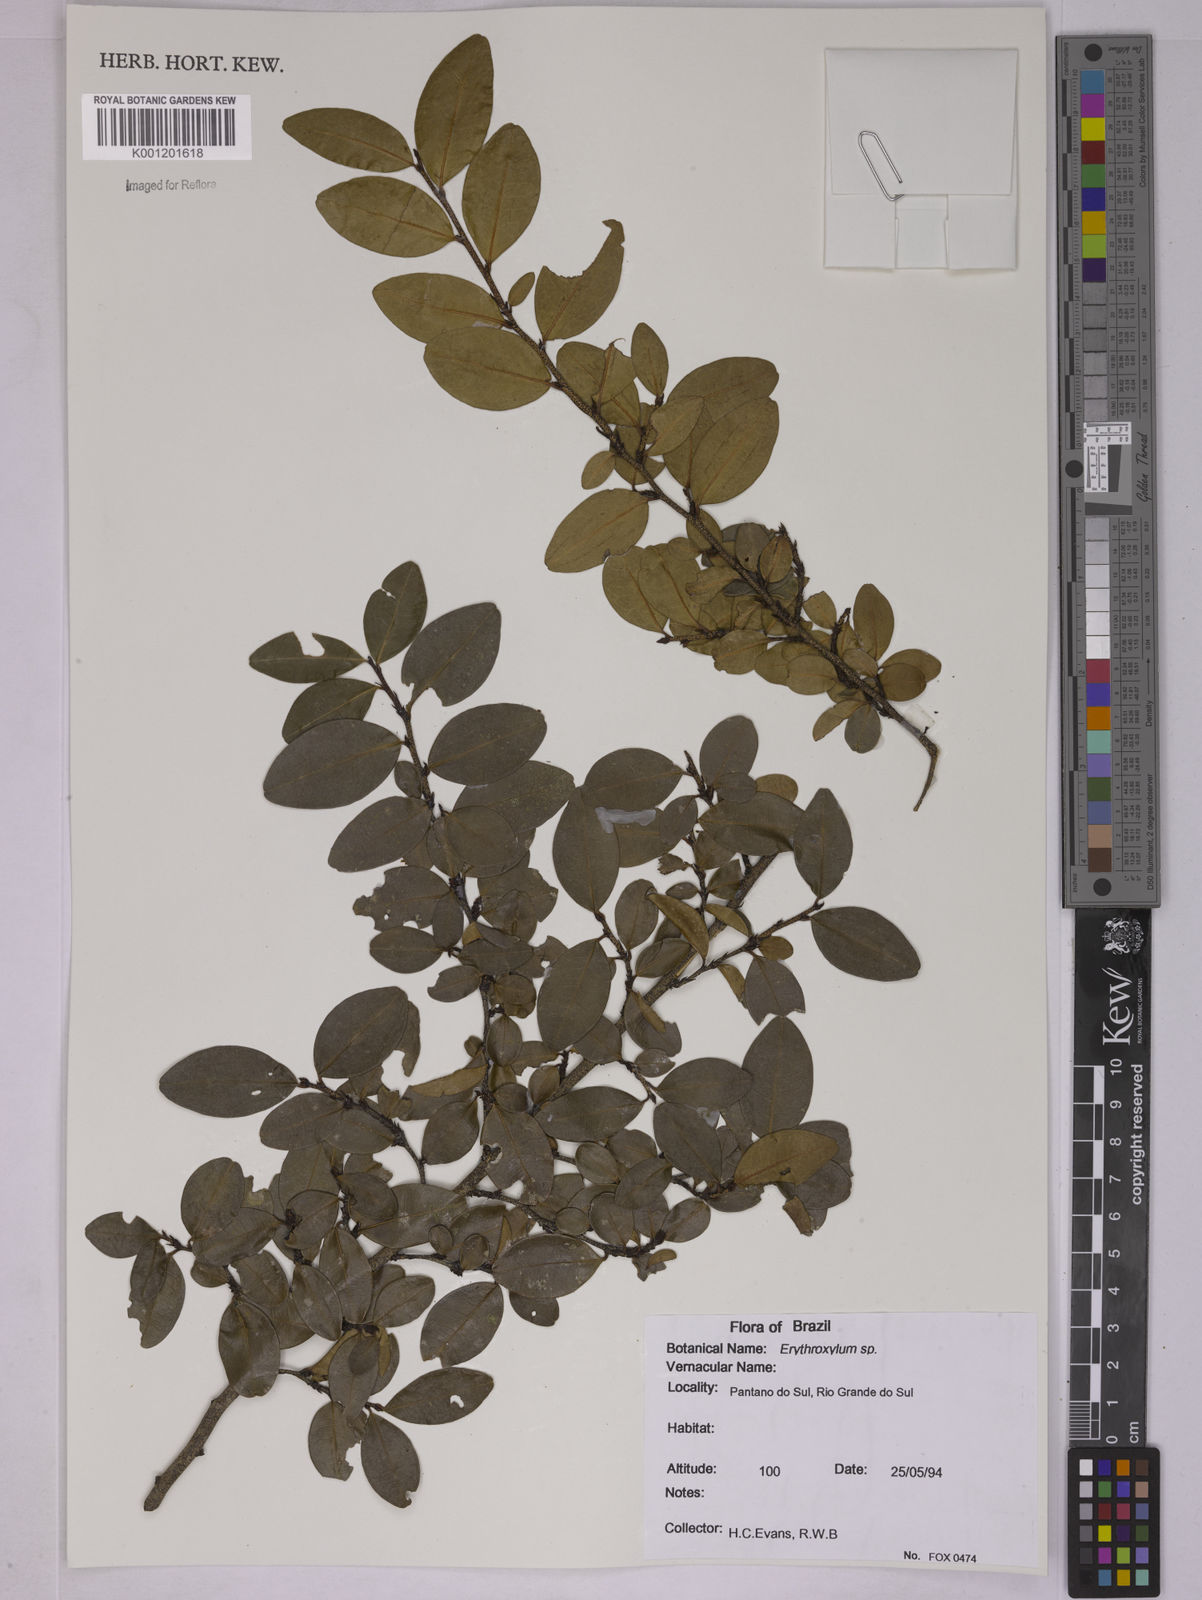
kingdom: Plantae
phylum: Tracheophyta
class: Magnoliopsida
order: Malpighiales
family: Erythroxylaceae
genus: Erythroxylum
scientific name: Erythroxylum
